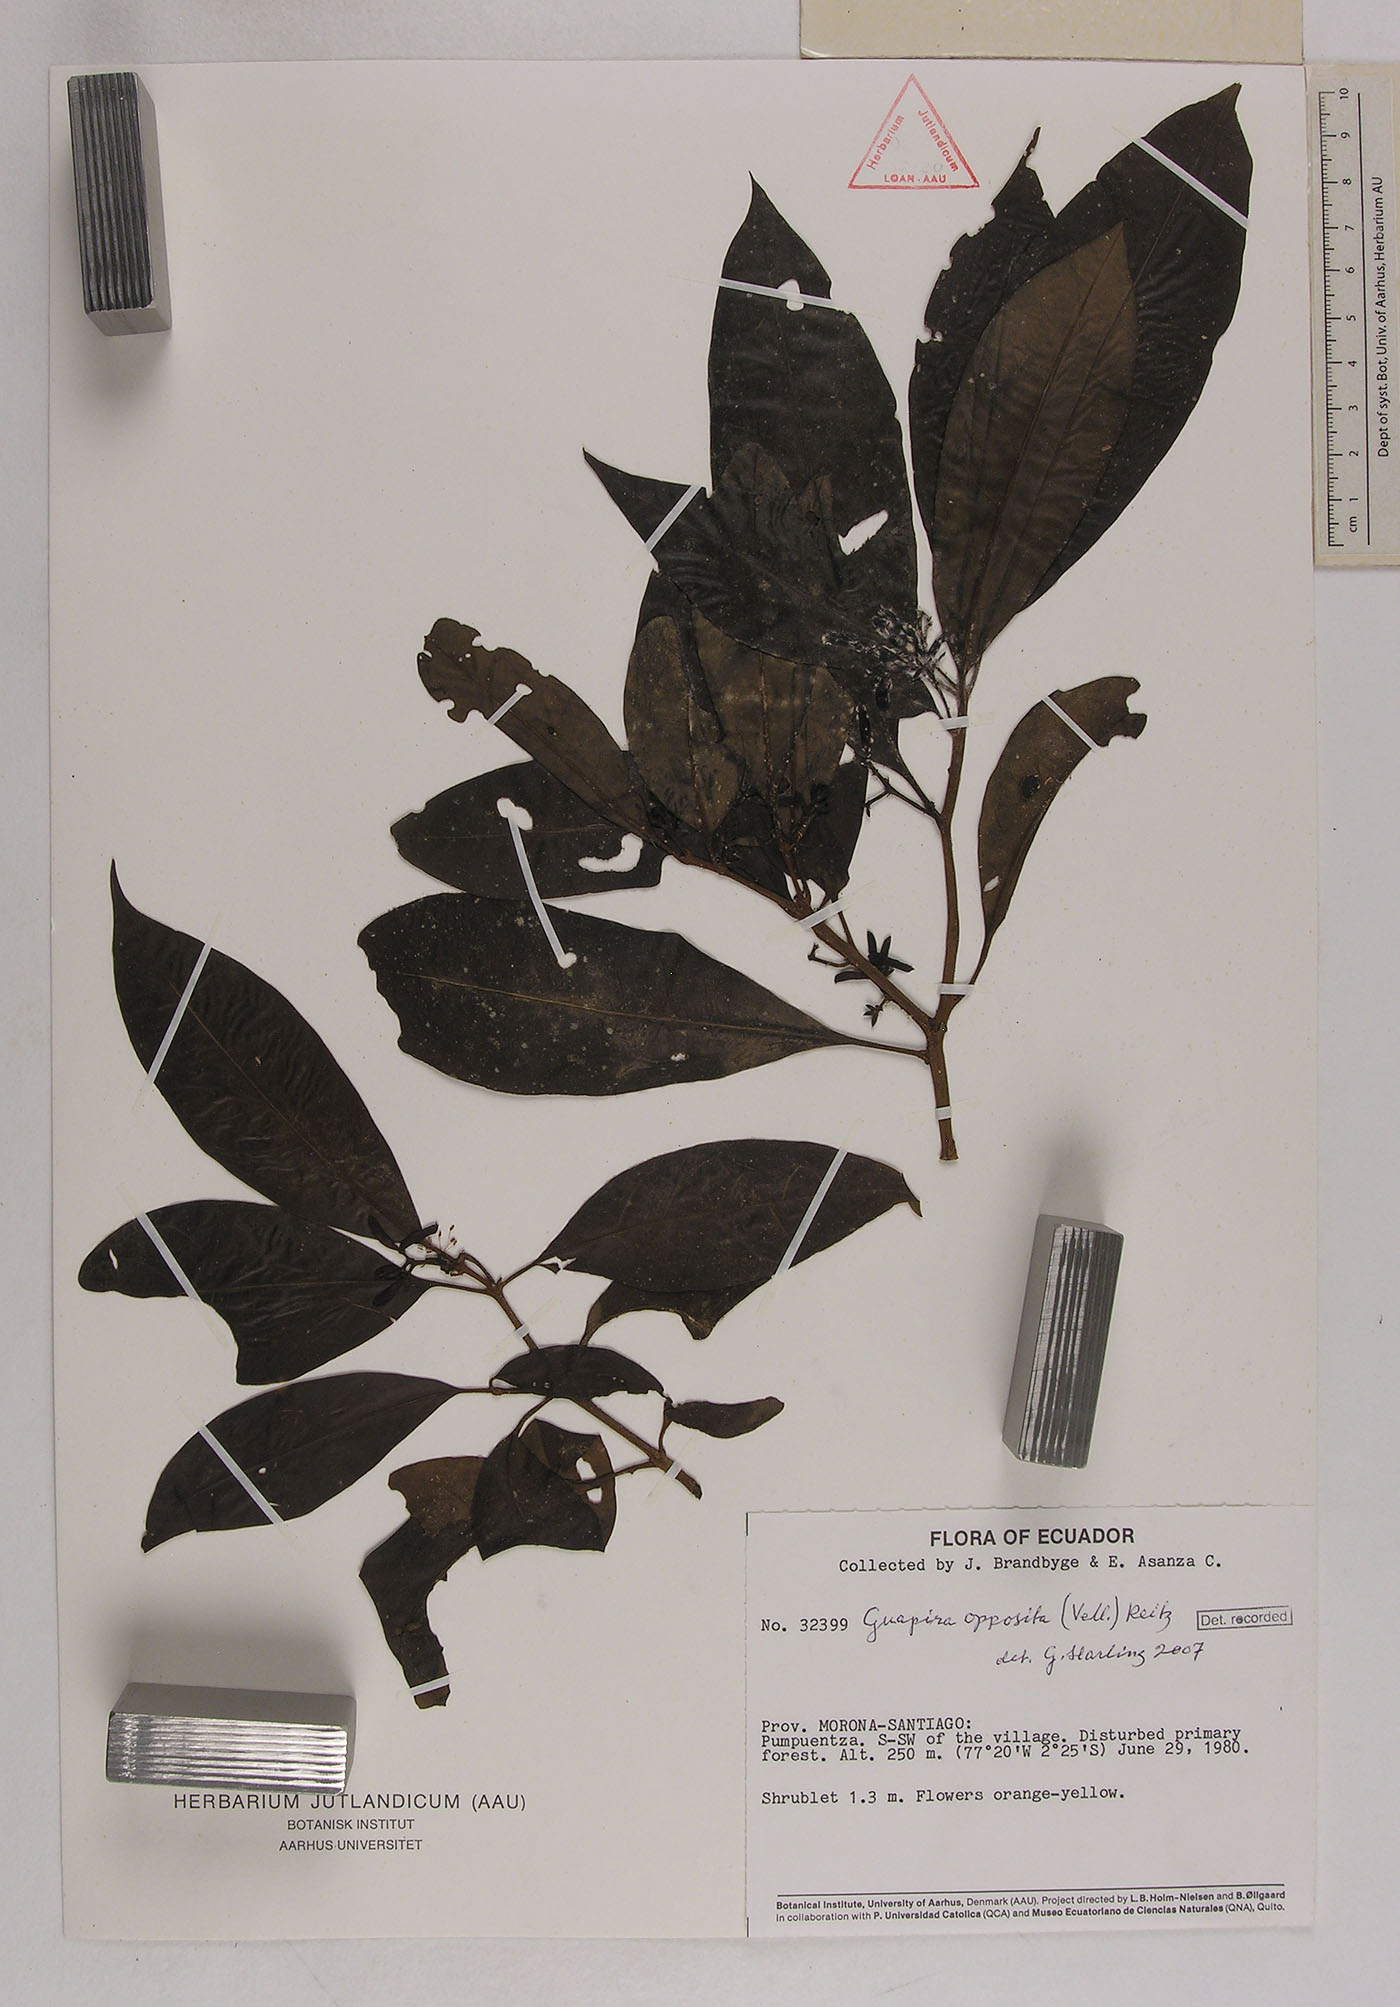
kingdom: Plantae
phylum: Tracheophyta
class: Magnoliopsida
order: Caryophyllales
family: Nyctaginaceae
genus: Guapira
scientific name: Guapira opposita
